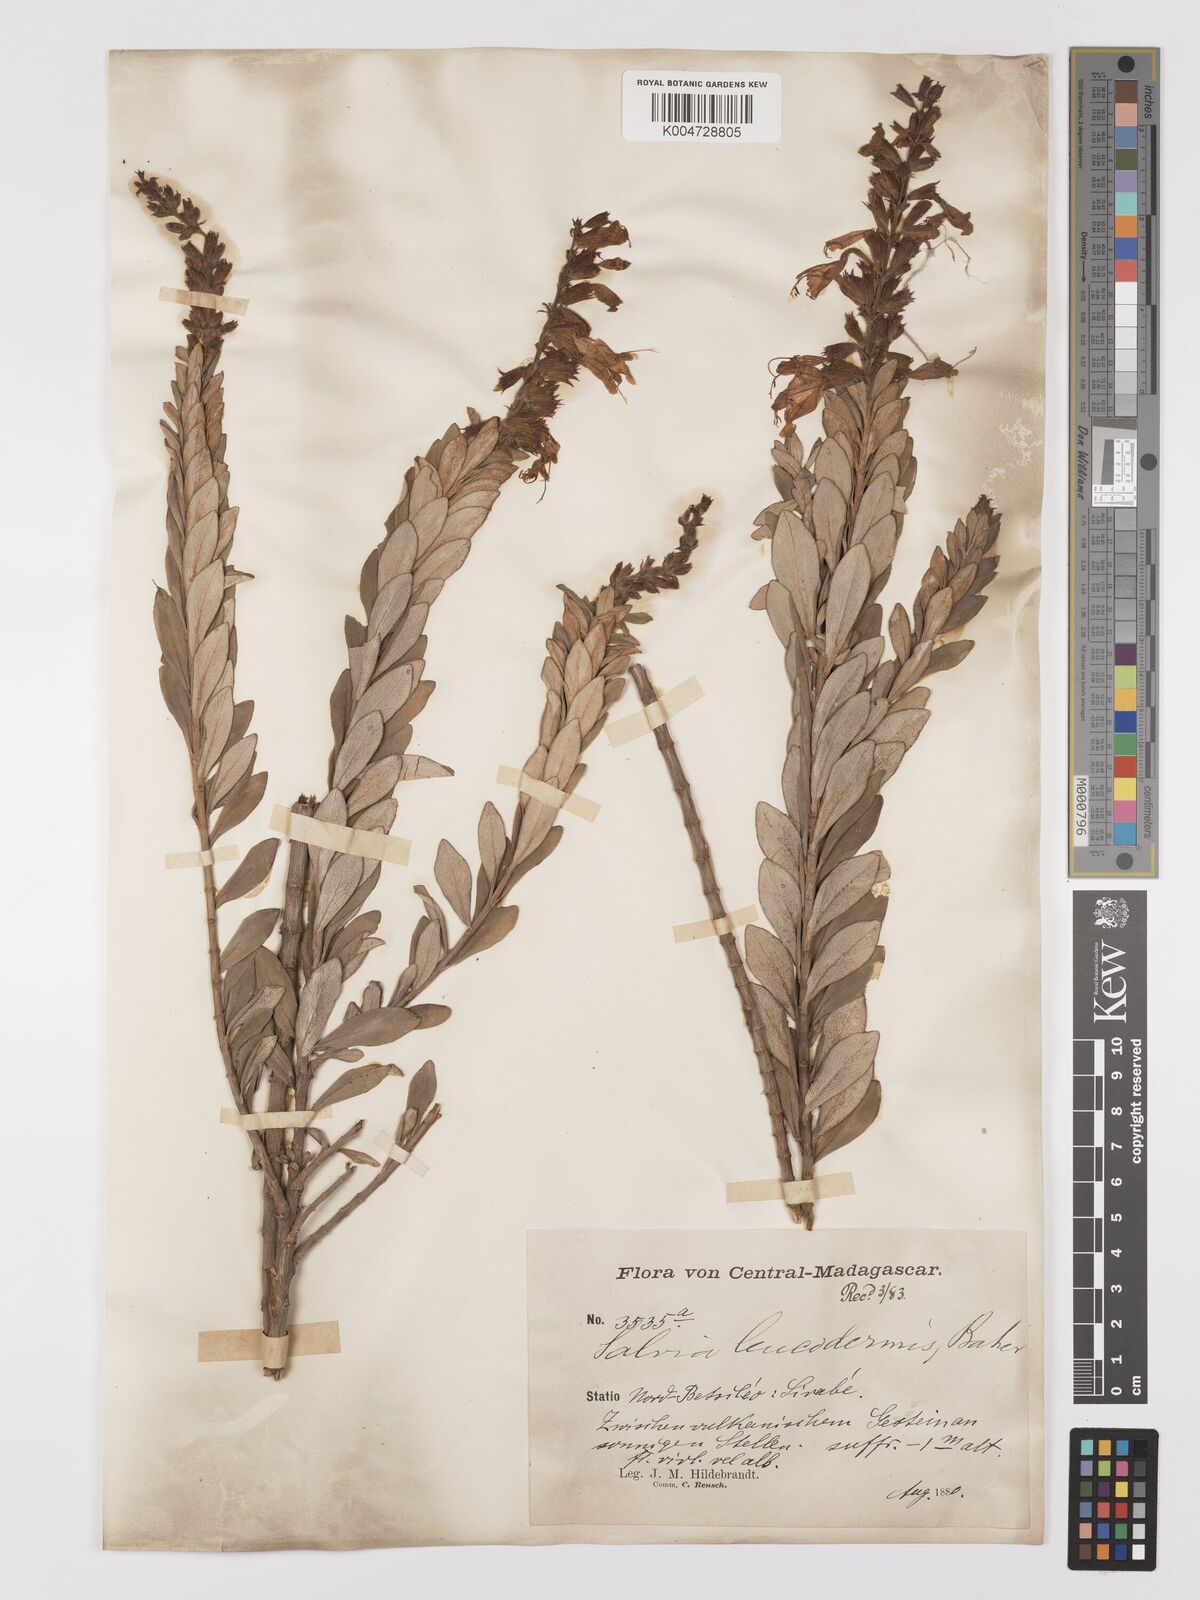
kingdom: Plantae
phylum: Tracheophyta
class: Magnoliopsida
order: Lamiales
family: Lamiaceae
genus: Salvia
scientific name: Salvia leucodermis
